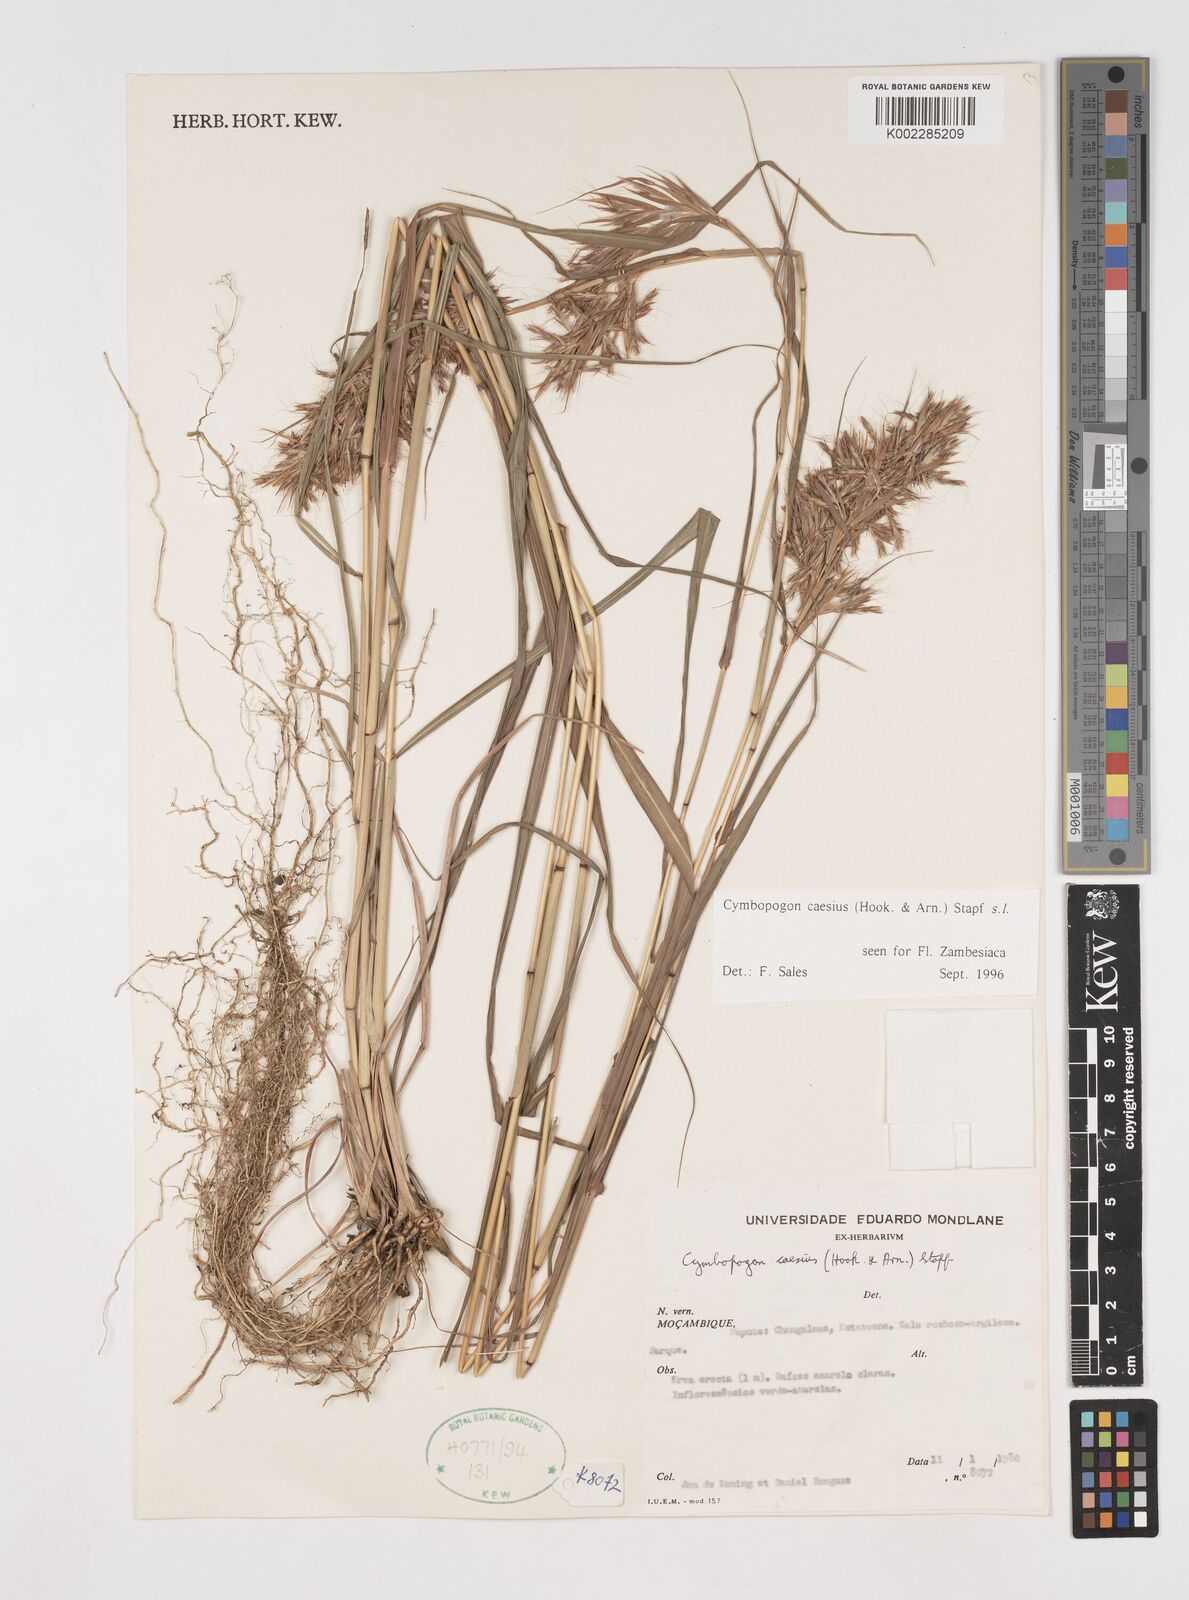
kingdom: Plantae
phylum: Tracheophyta
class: Liliopsida
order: Poales
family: Poaceae
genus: Cymbopogon
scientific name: Cymbopogon caesius
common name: Kachi grass
